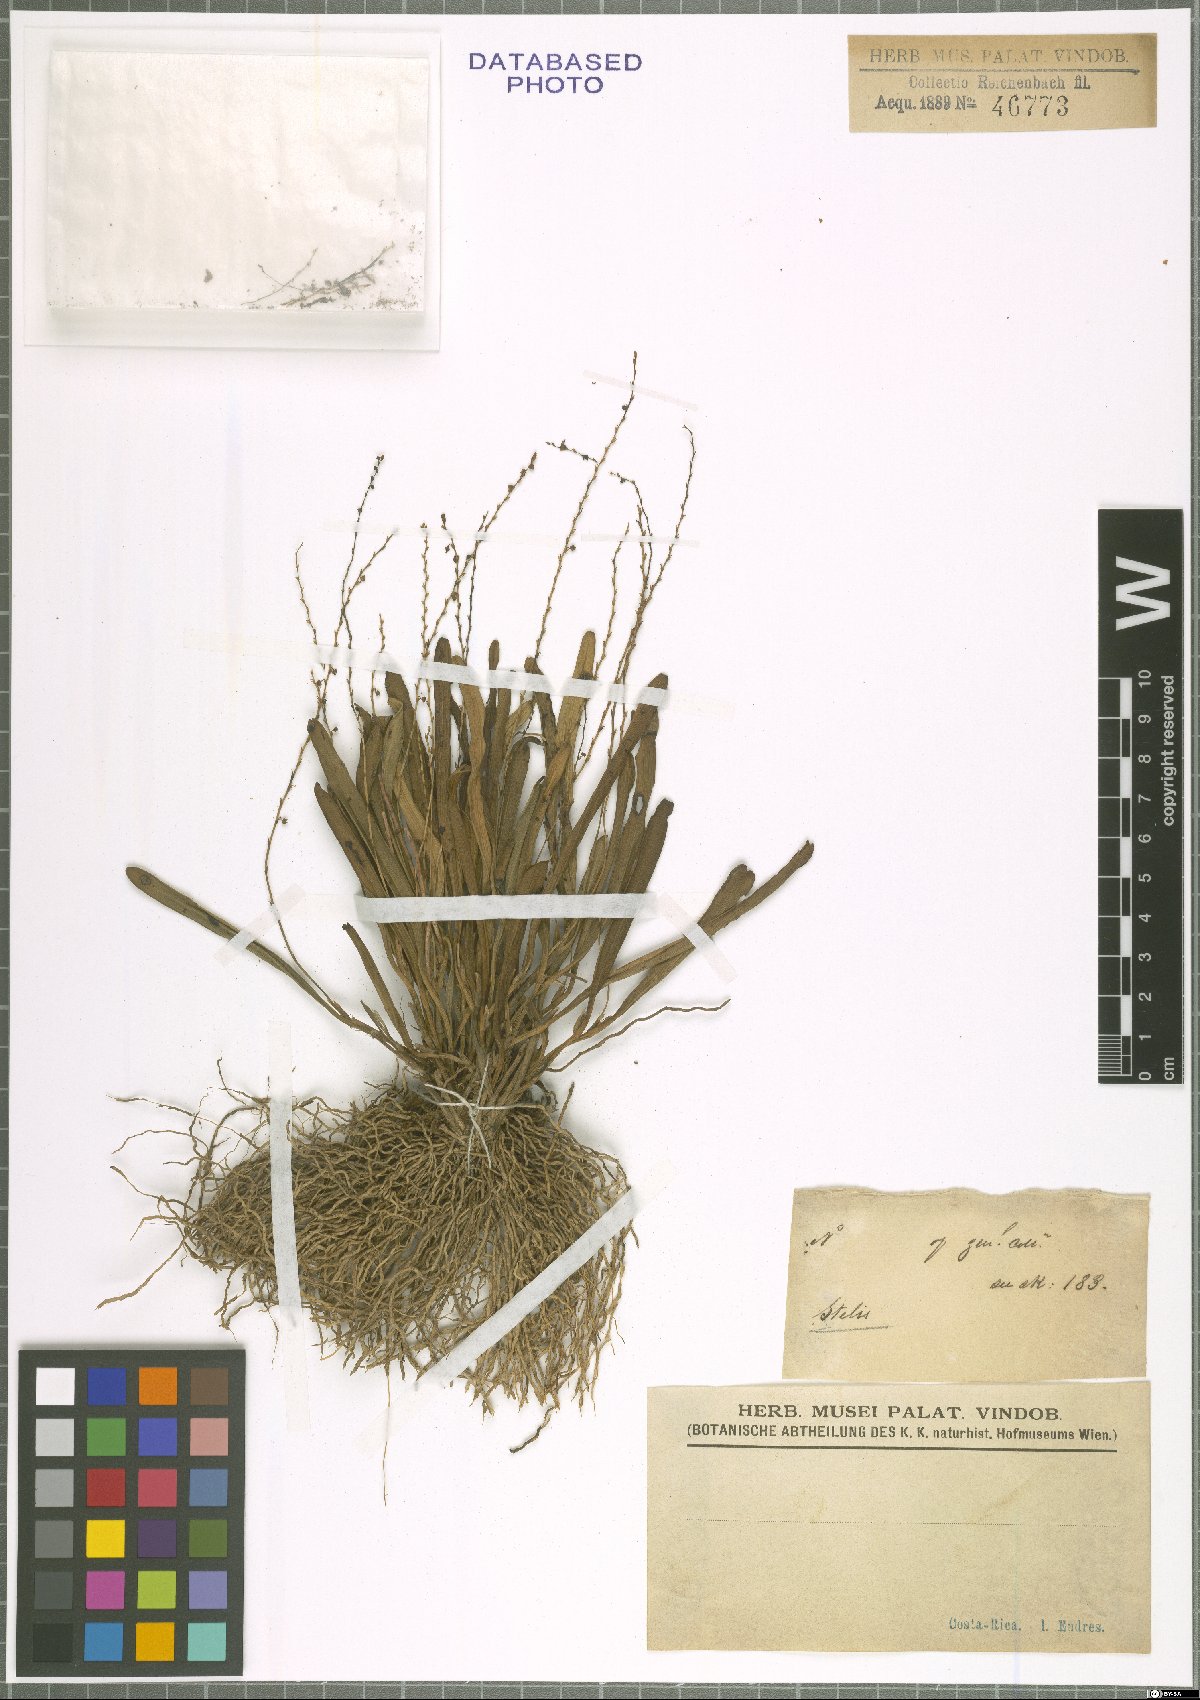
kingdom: Plantae
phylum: Tracheophyta
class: Liliopsida
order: Asparagales
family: Orchidaceae
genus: Stelis
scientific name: Stelis
